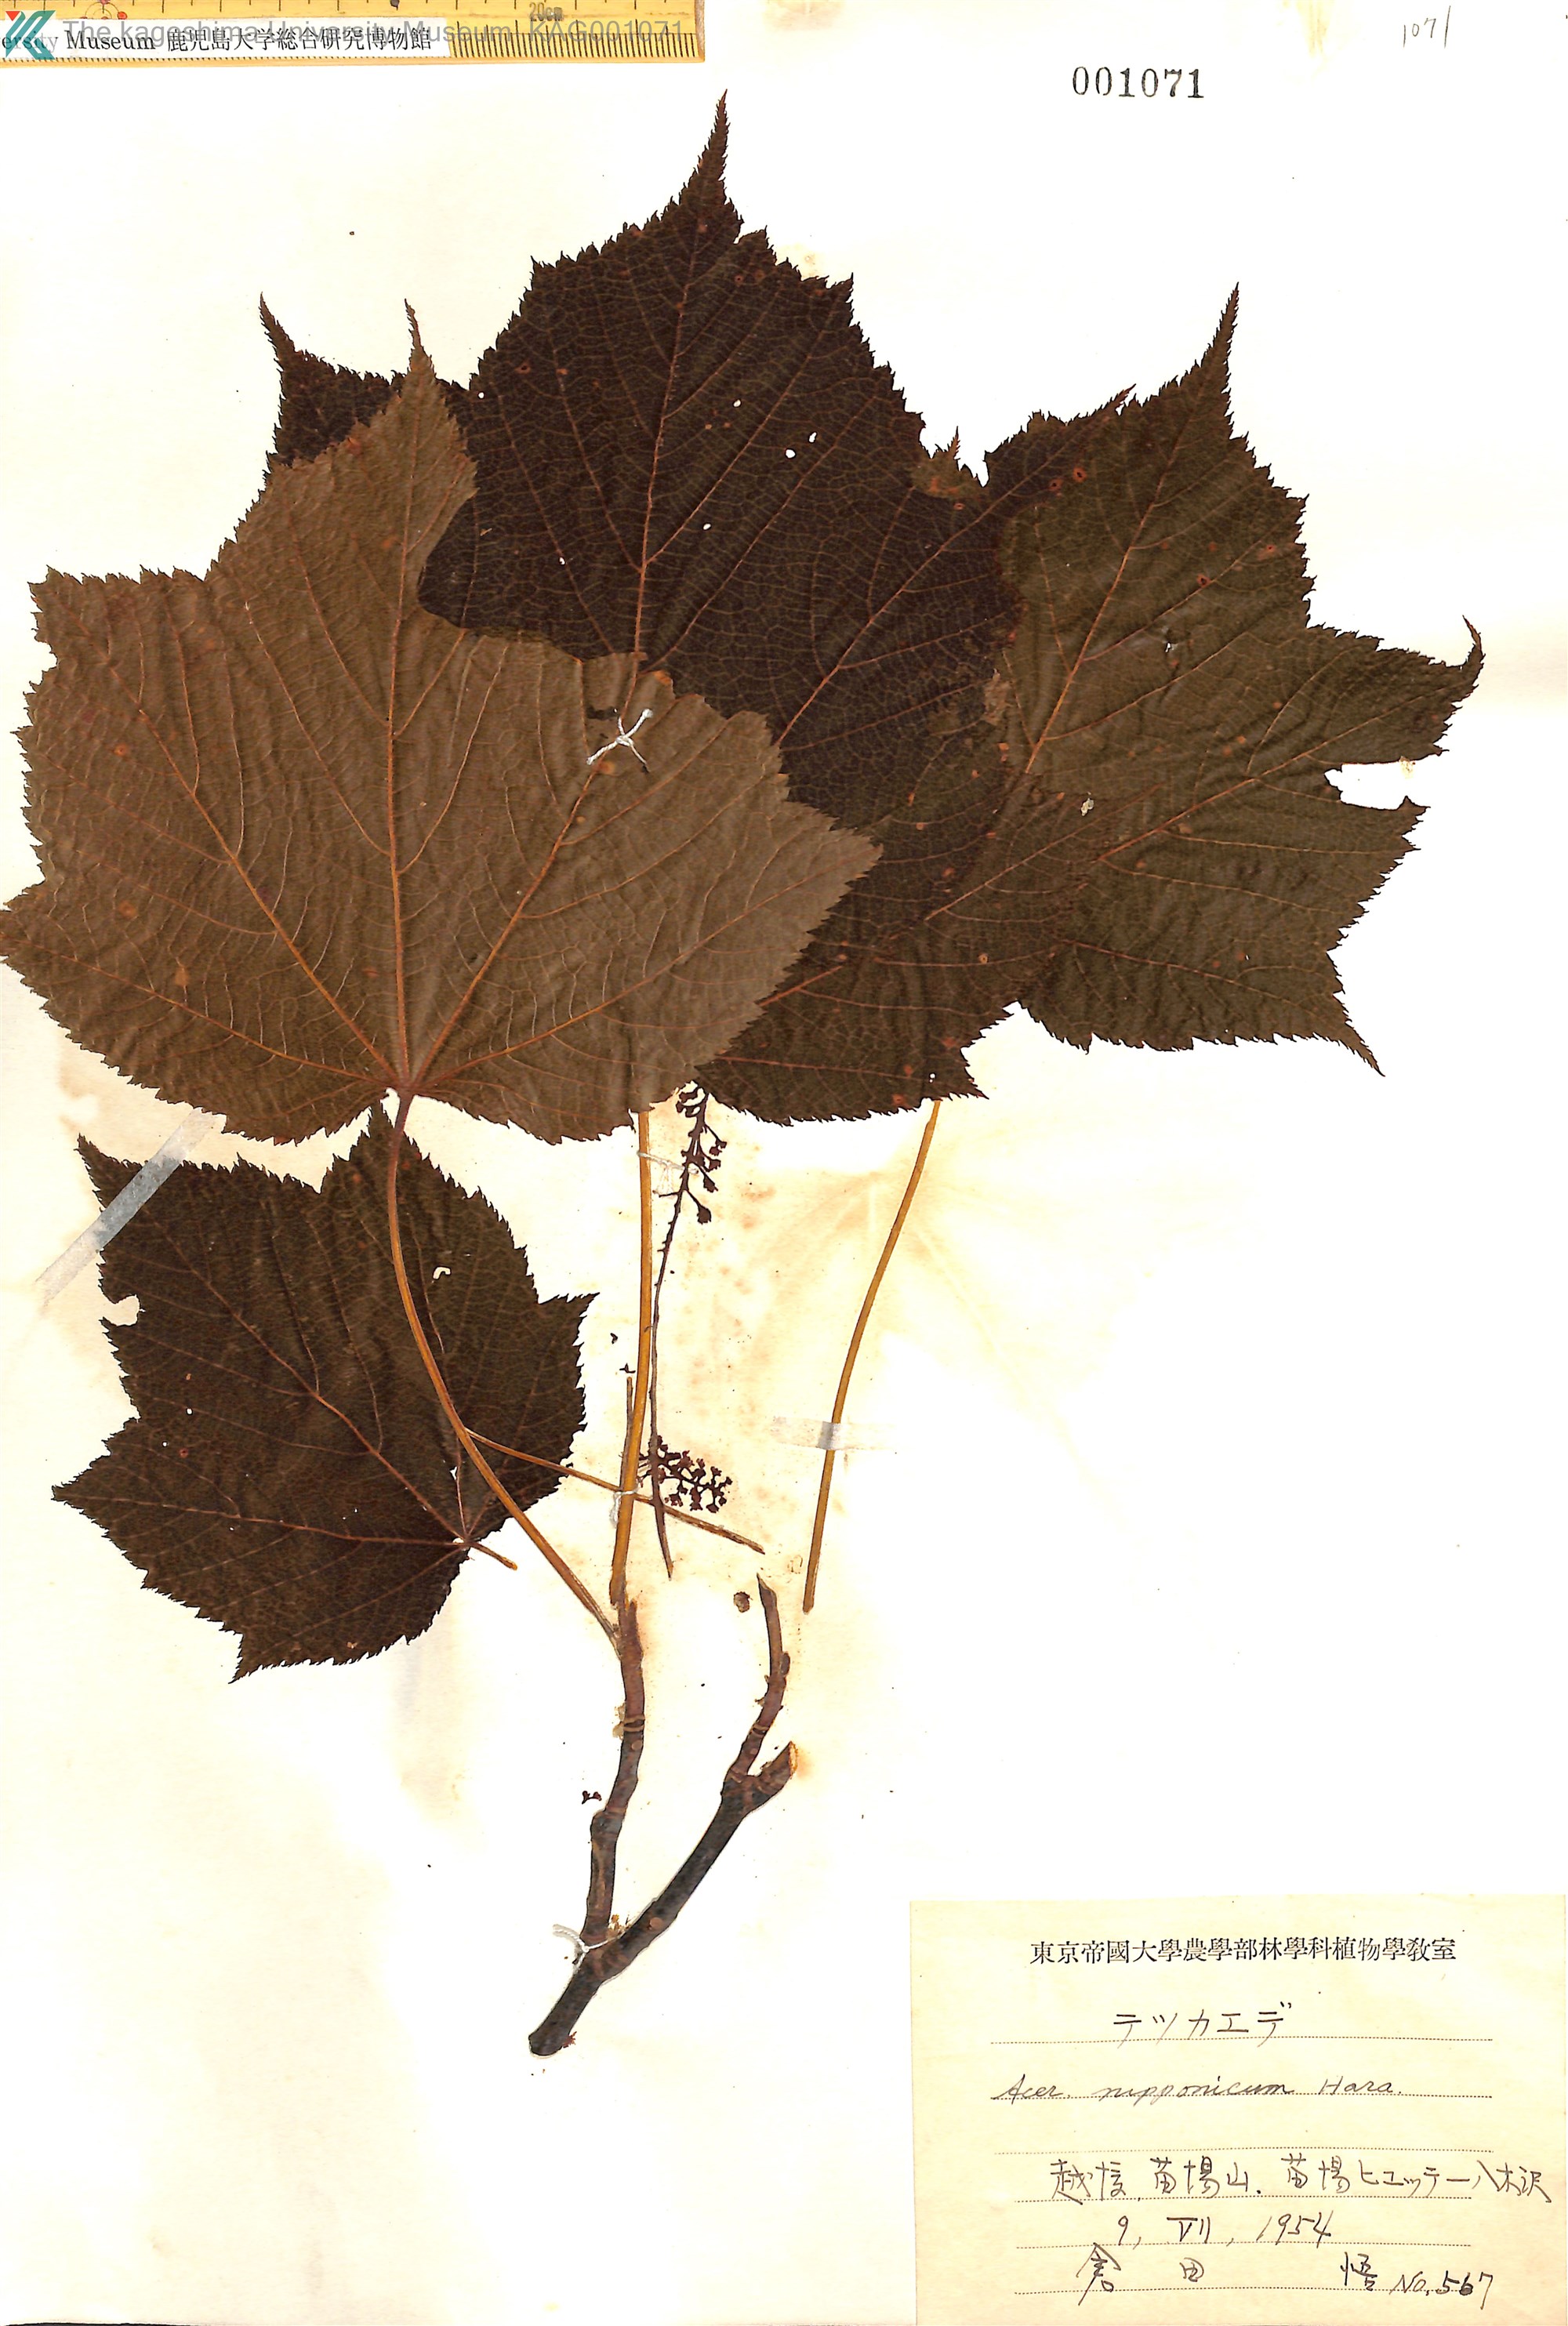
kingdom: Plantae
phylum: Tracheophyta
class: Magnoliopsida
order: Sapindales
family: Sapindaceae
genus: Acer
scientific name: Acer nipponicum
